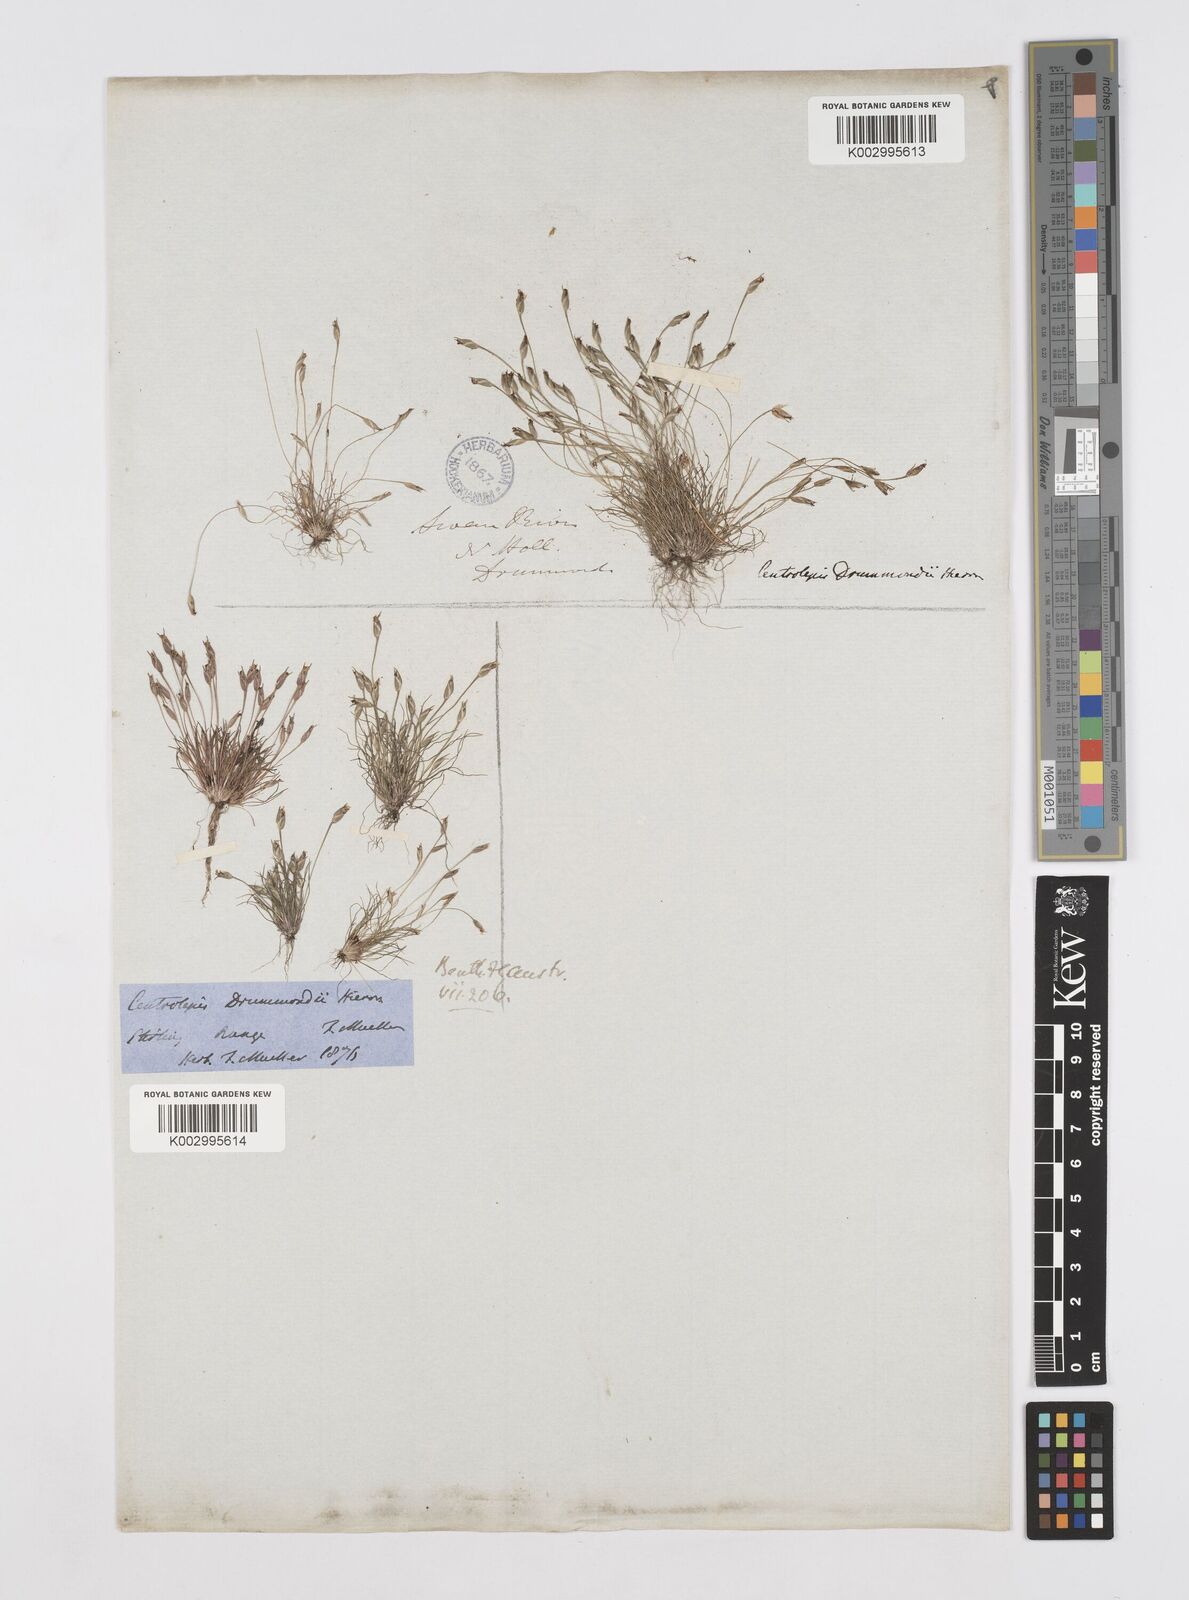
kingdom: Plantae
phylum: Tracheophyta
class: Liliopsida
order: Poales
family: Restionaceae
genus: Centrolepis
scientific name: Centrolepis drummondiana
